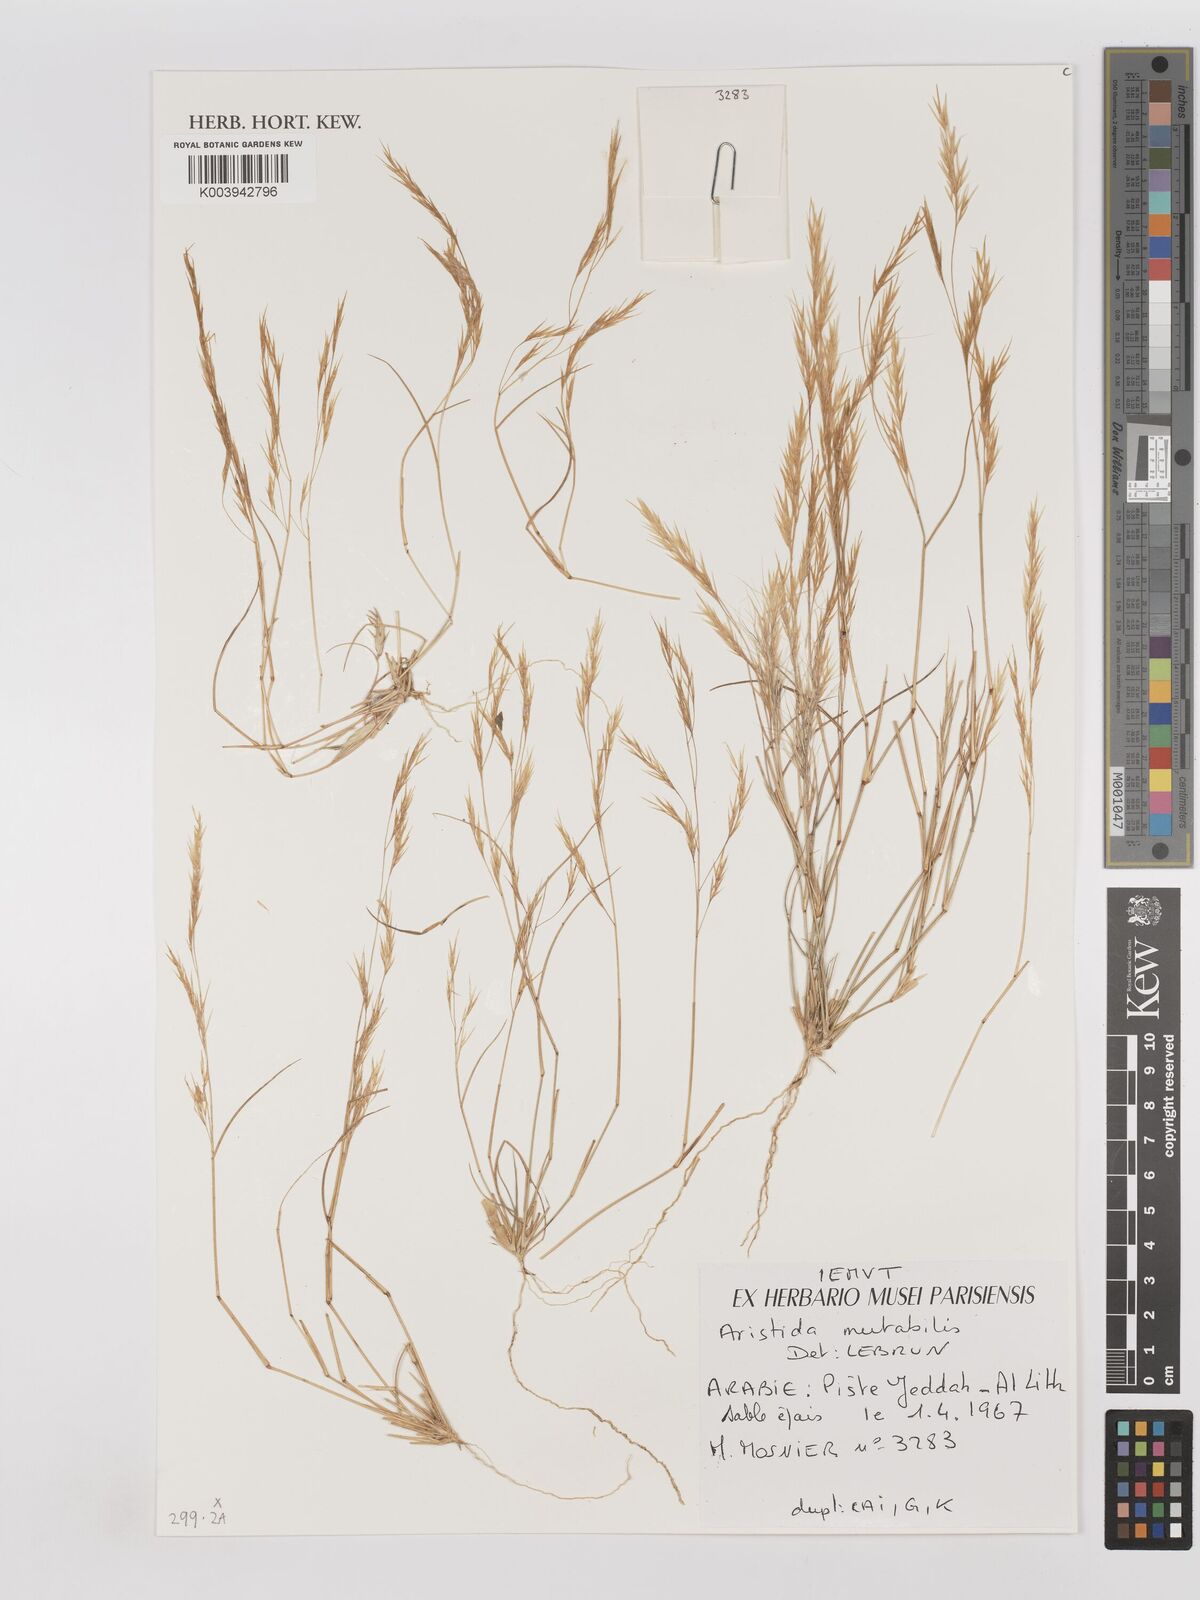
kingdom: Plantae
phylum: Tracheophyta
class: Liliopsida
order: Poales
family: Poaceae
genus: Aristida
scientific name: Aristida mutabilis
